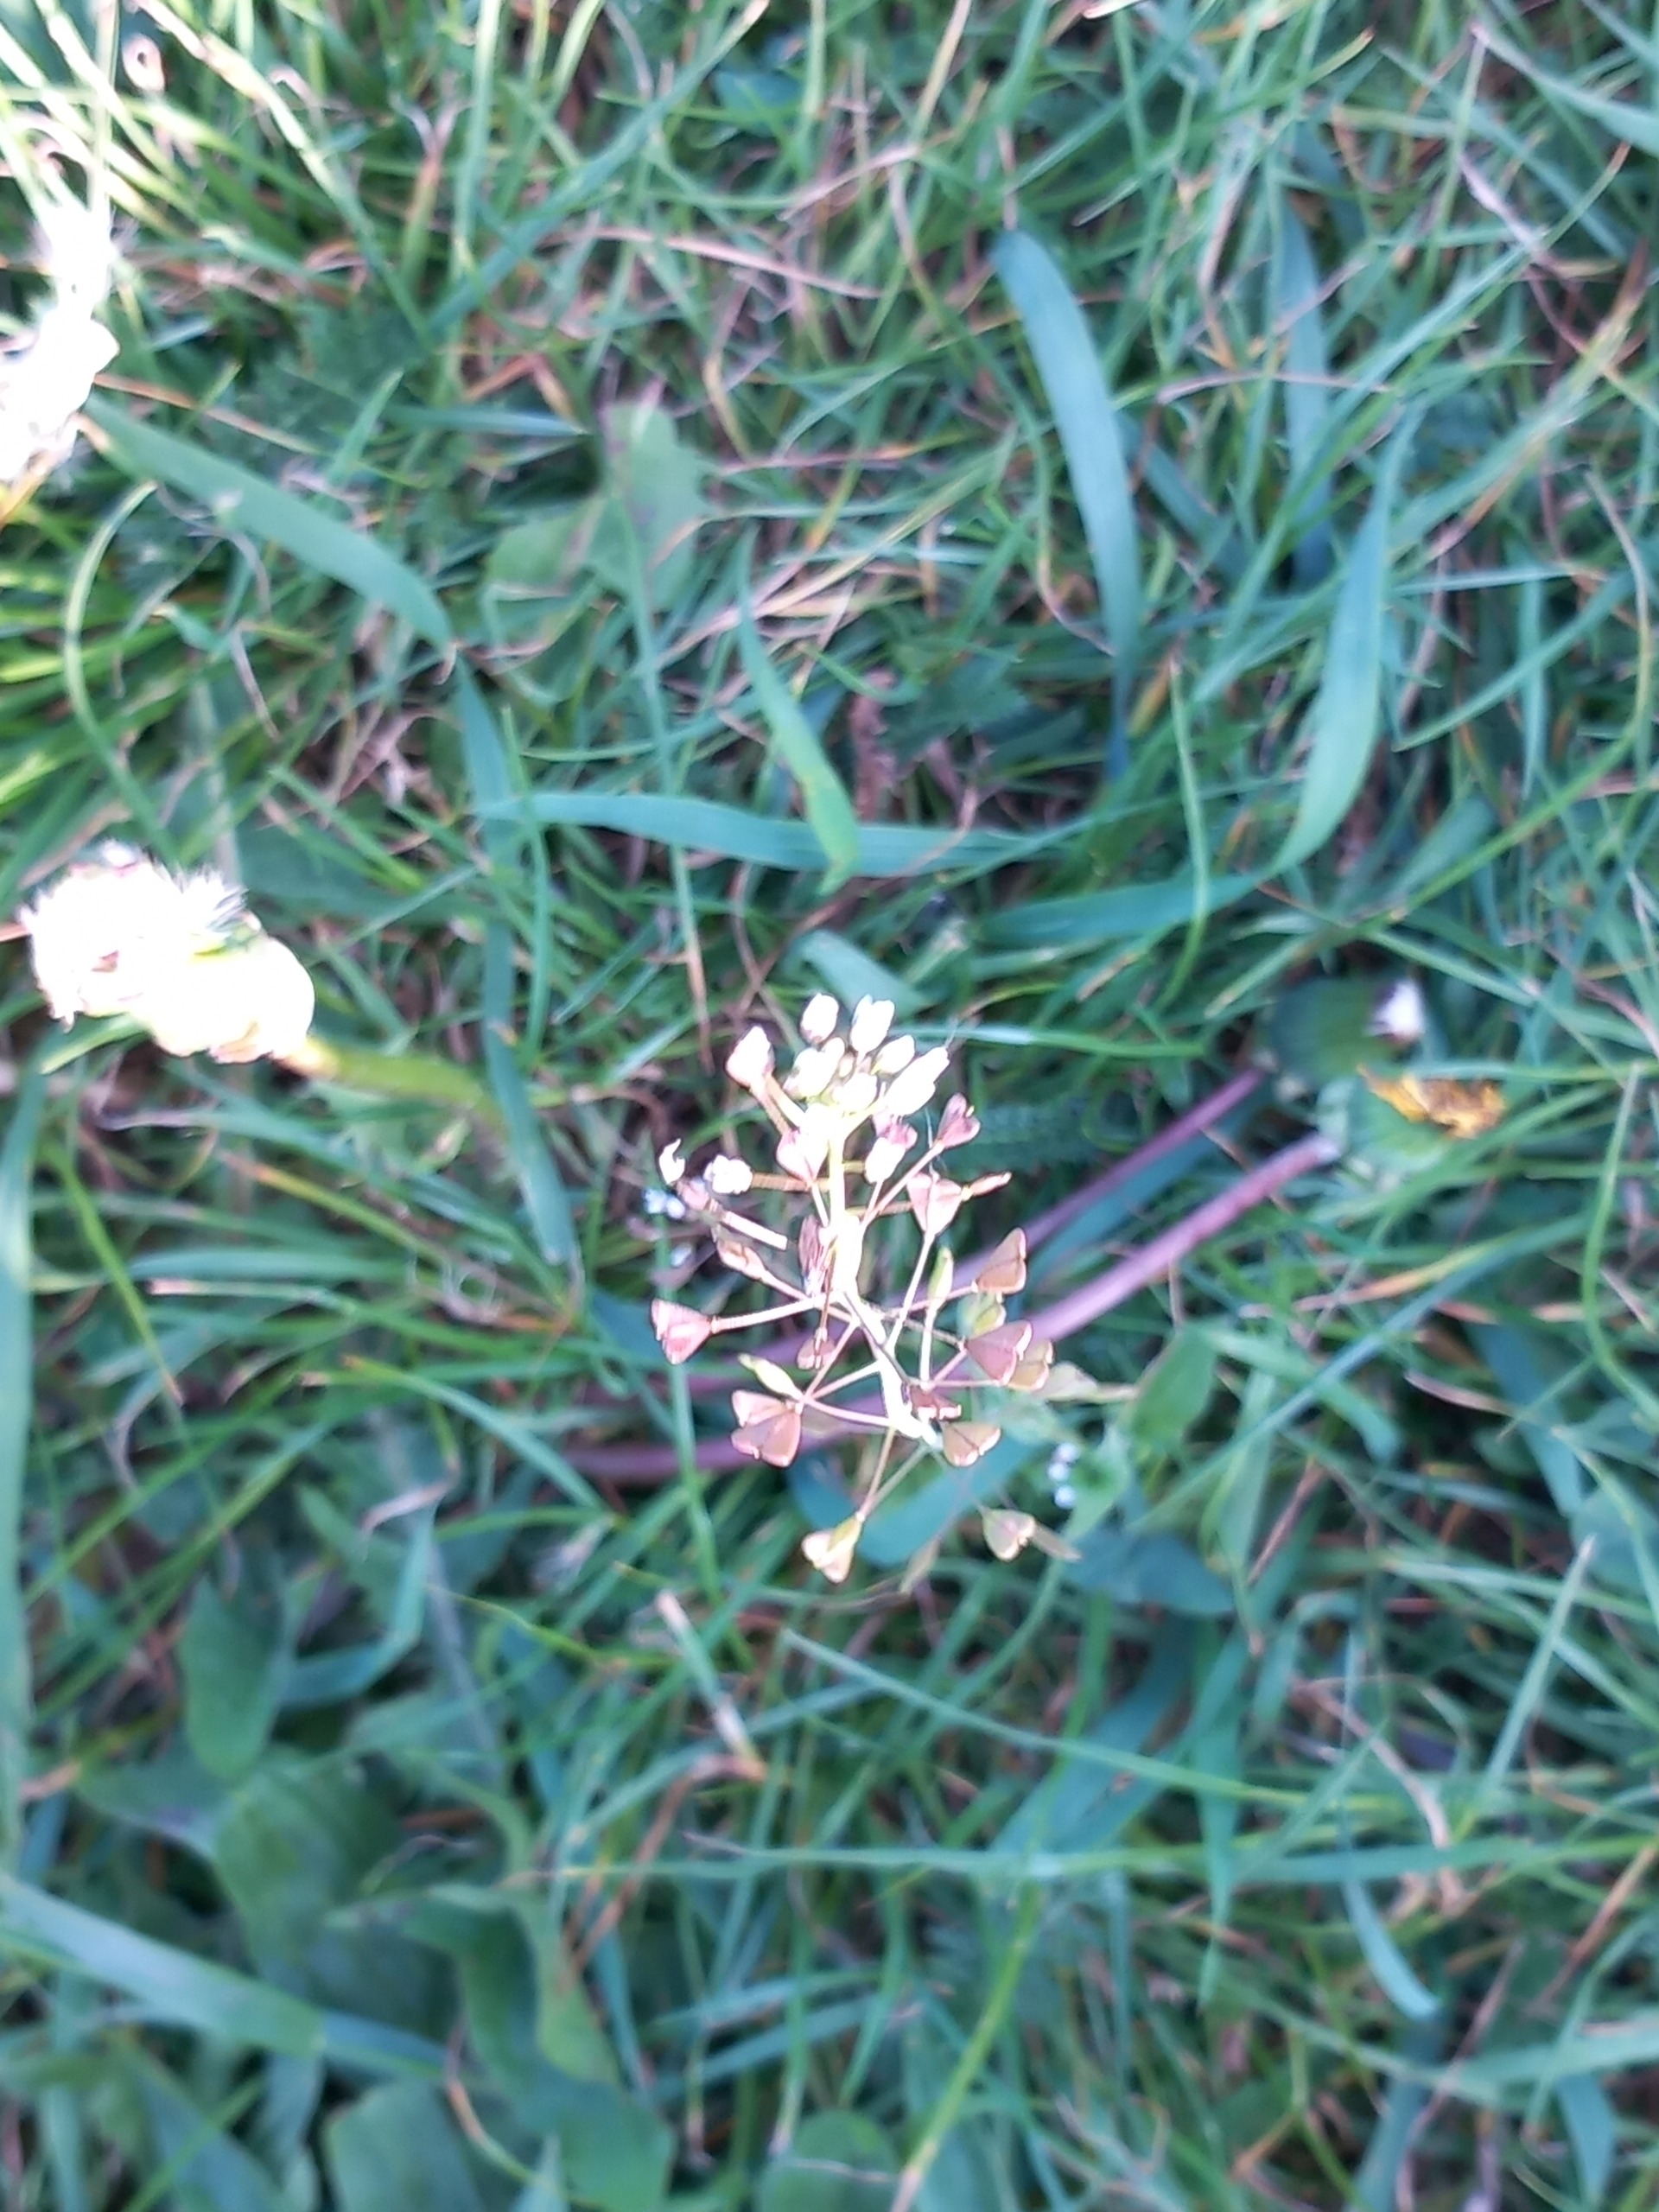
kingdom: Plantae
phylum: Tracheophyta
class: Magnoliopsida
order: Brassicales
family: Brassicaceae
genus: Capsella
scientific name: Capsella bursa-pastoris
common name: Hyrdetaske
